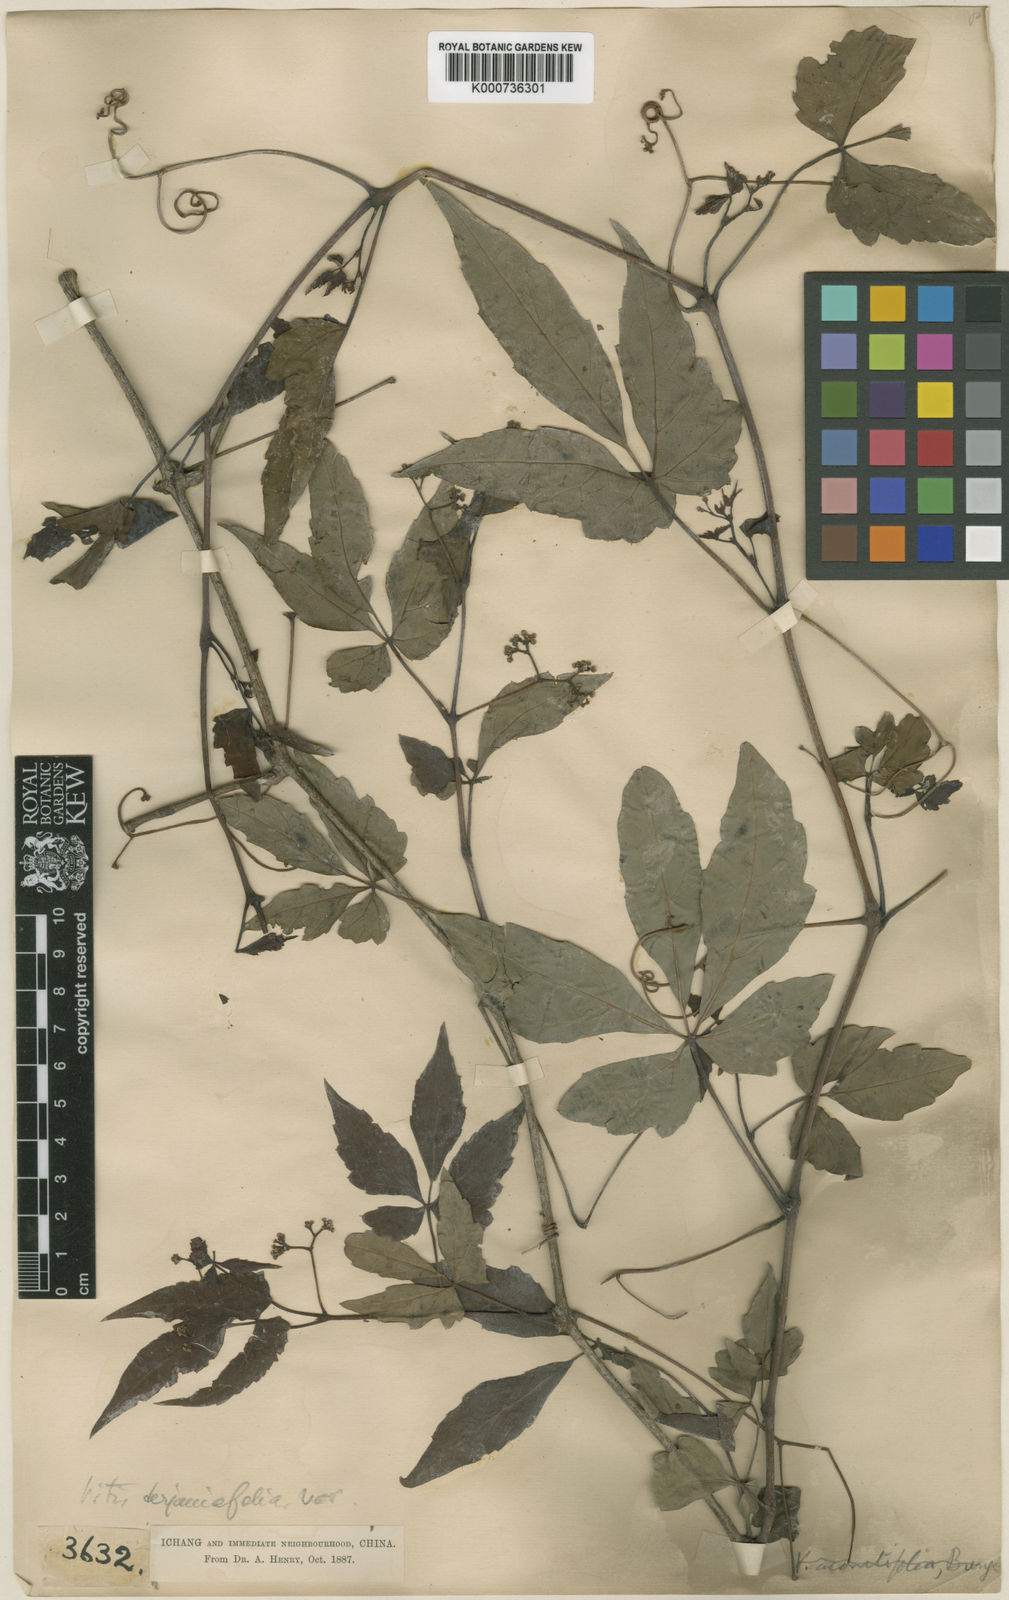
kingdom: Plantae
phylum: Tracheophyta
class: Magnoliopsida
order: Vitales
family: Vitaceae
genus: Ampelopsis
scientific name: Ampelopsis delavayana
